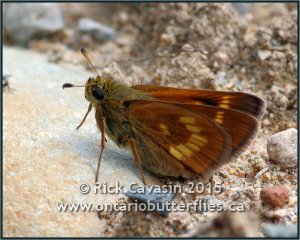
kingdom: Animalia
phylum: Arthropoda
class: Insecta
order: Lepidoptera
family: Hesperiidae
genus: Polites
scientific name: Polites
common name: Long Dash Skipper
